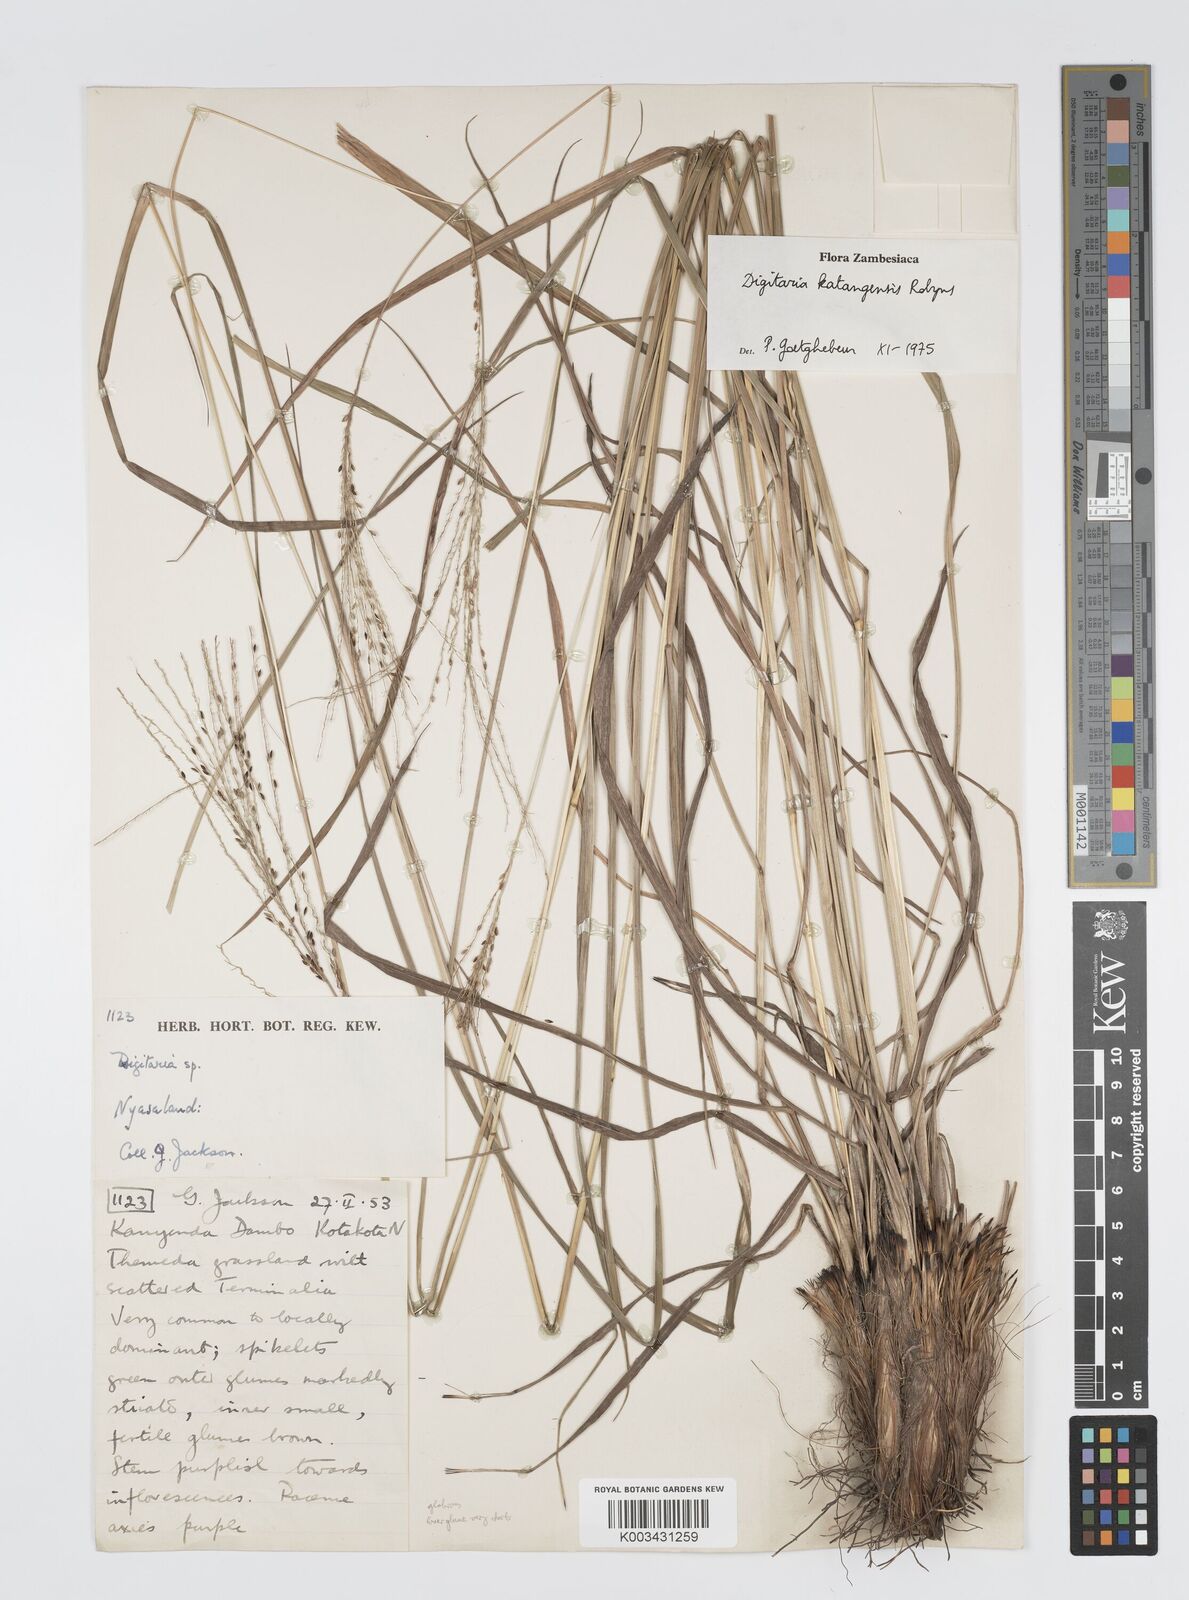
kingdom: Plantae
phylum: Tracheophyta
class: Liliopsida
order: Poales
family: Poaceae
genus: Digitaria
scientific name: Digitaria compressa
